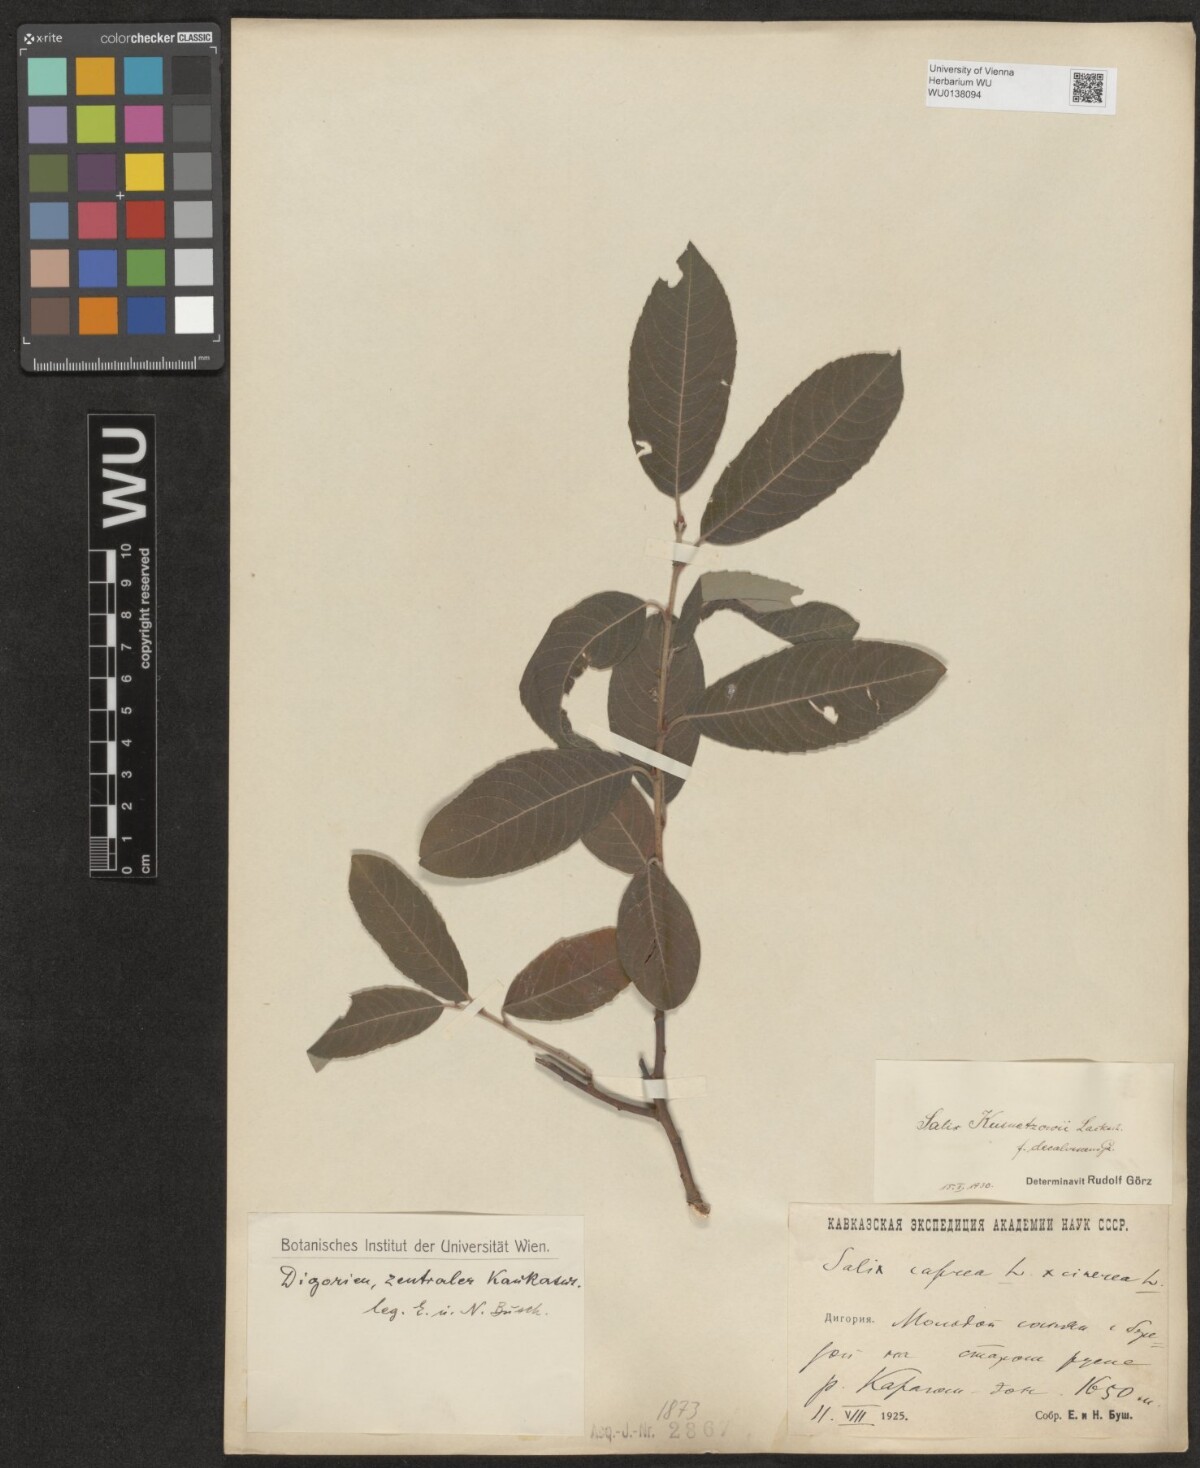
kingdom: Plantae
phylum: Tracheophyta
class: Magnoliopsida
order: Malpighiales
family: Salicaceae
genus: Salix
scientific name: Salix kusnetzowii
